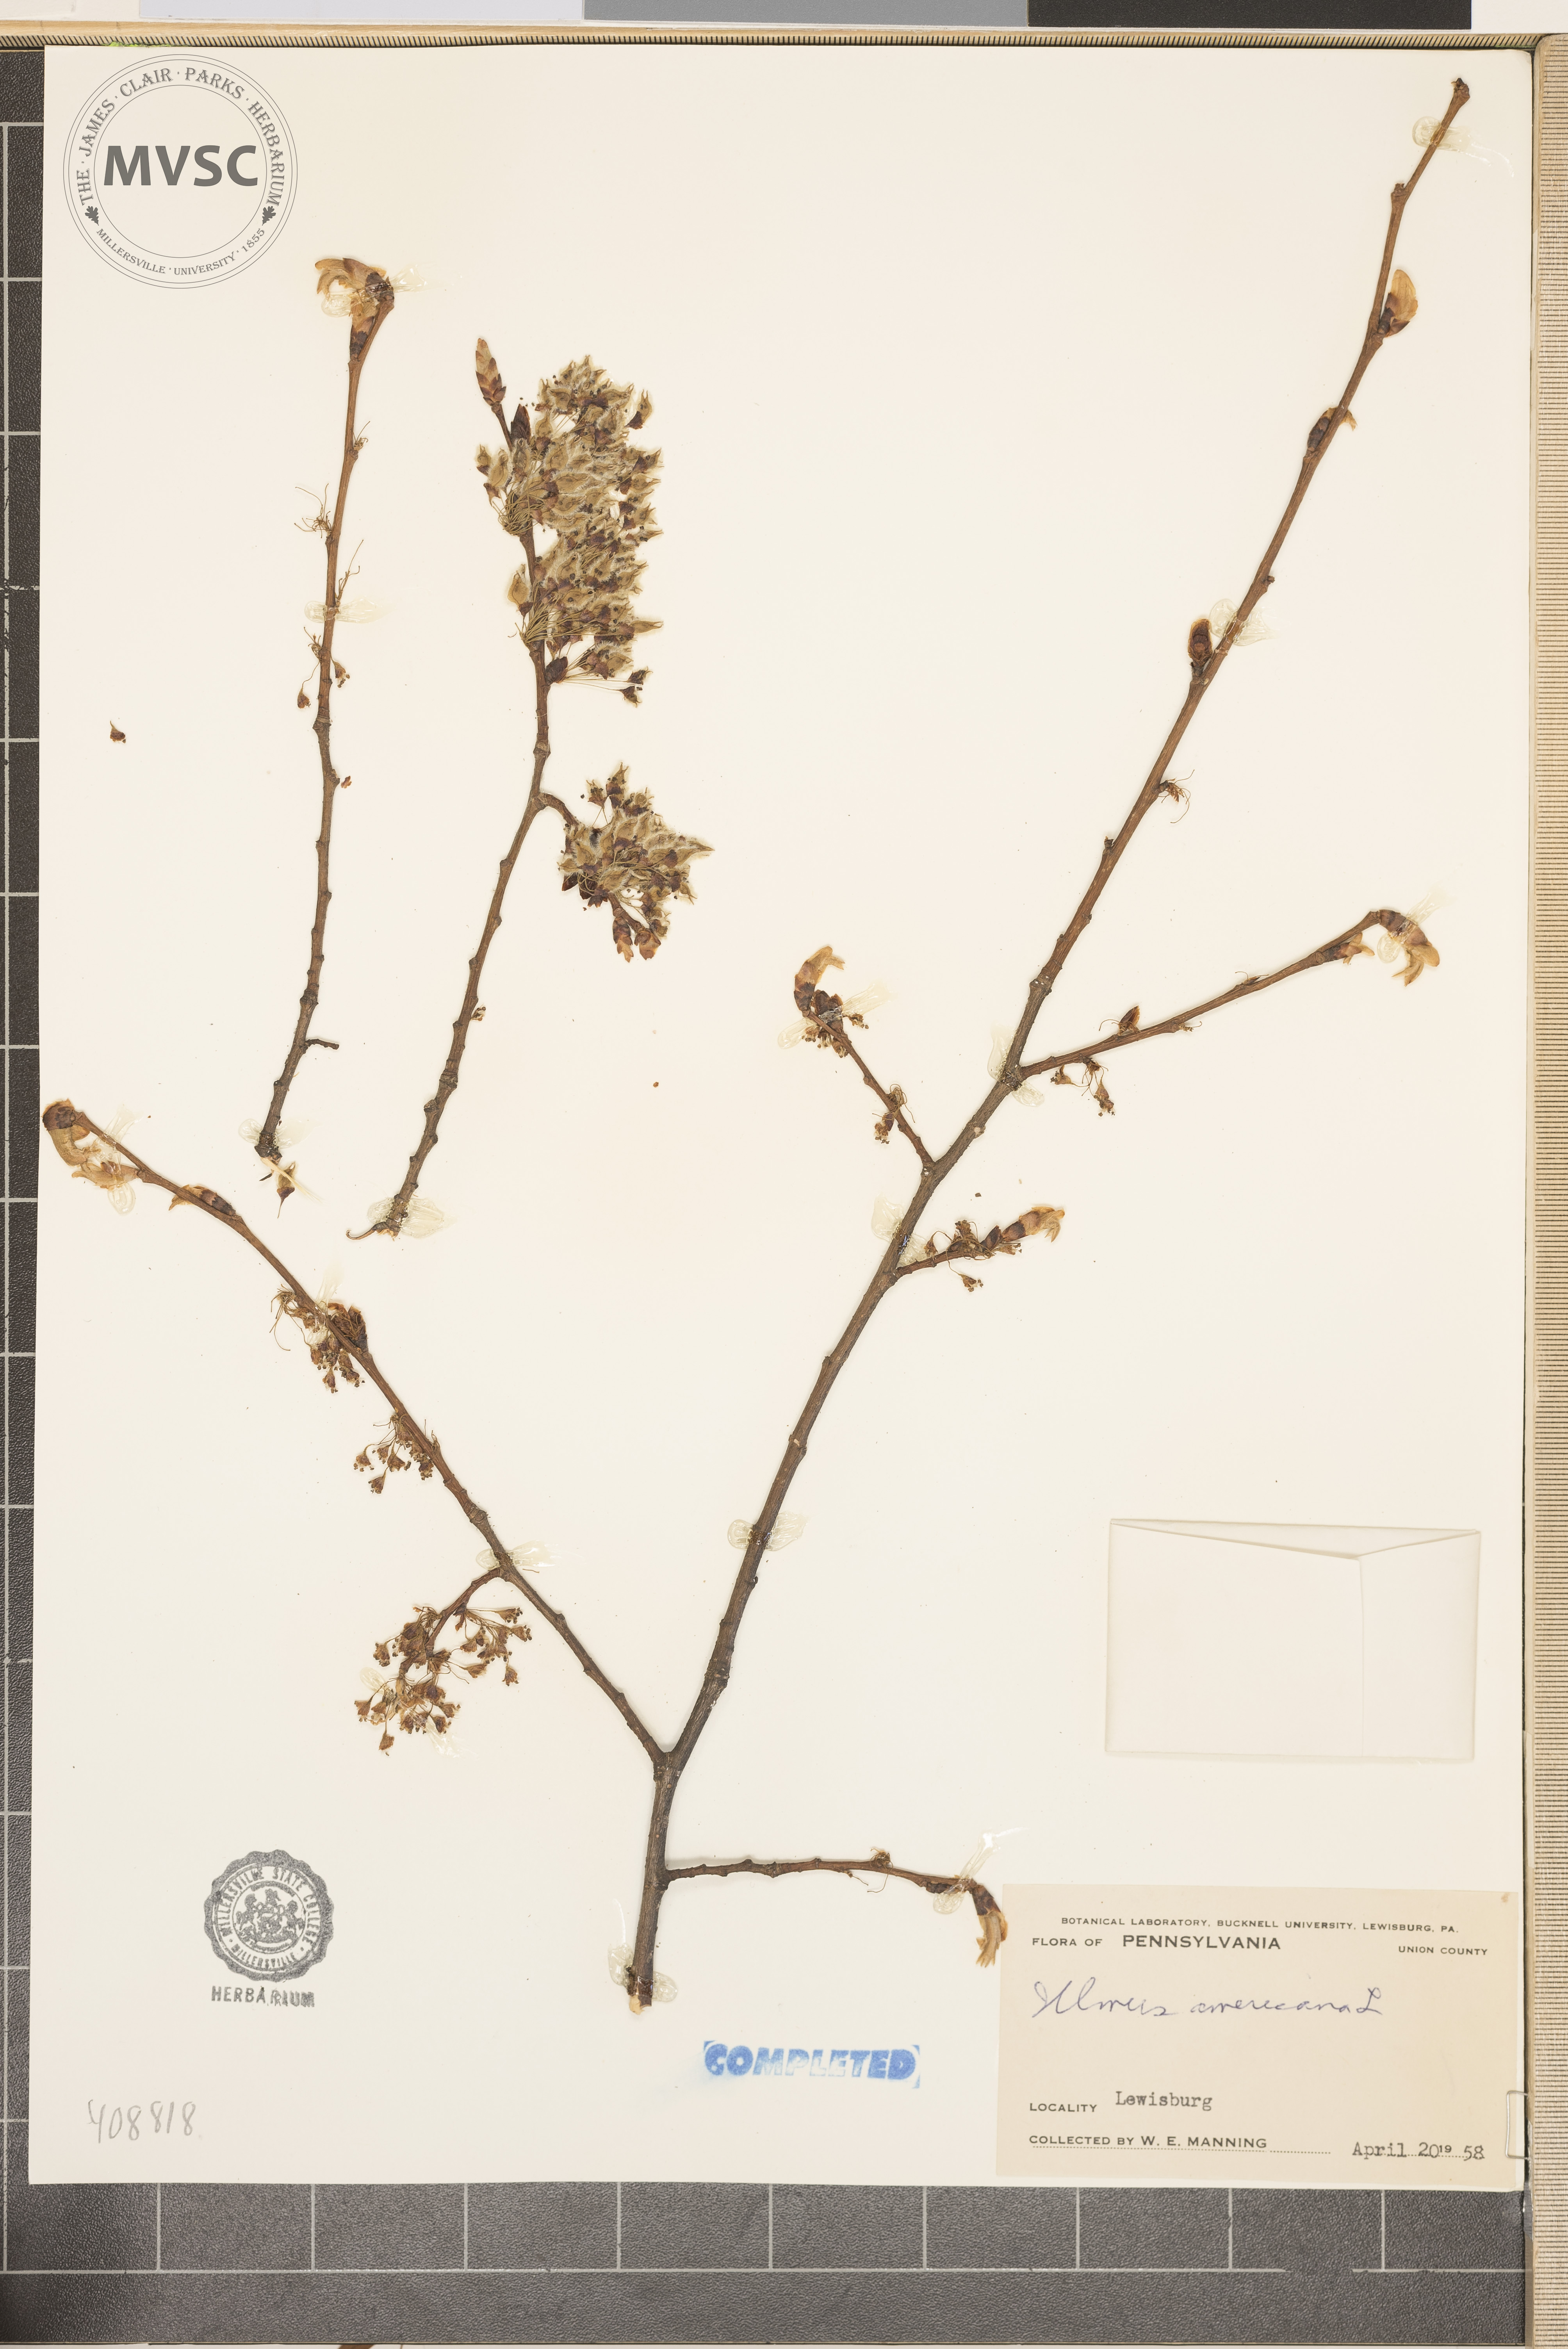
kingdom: Plantae
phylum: Tracheophyta
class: Magnoliopsida
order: Rosales
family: Ulmaceae
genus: Ulmus
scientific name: Ulmus americana
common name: American elm
